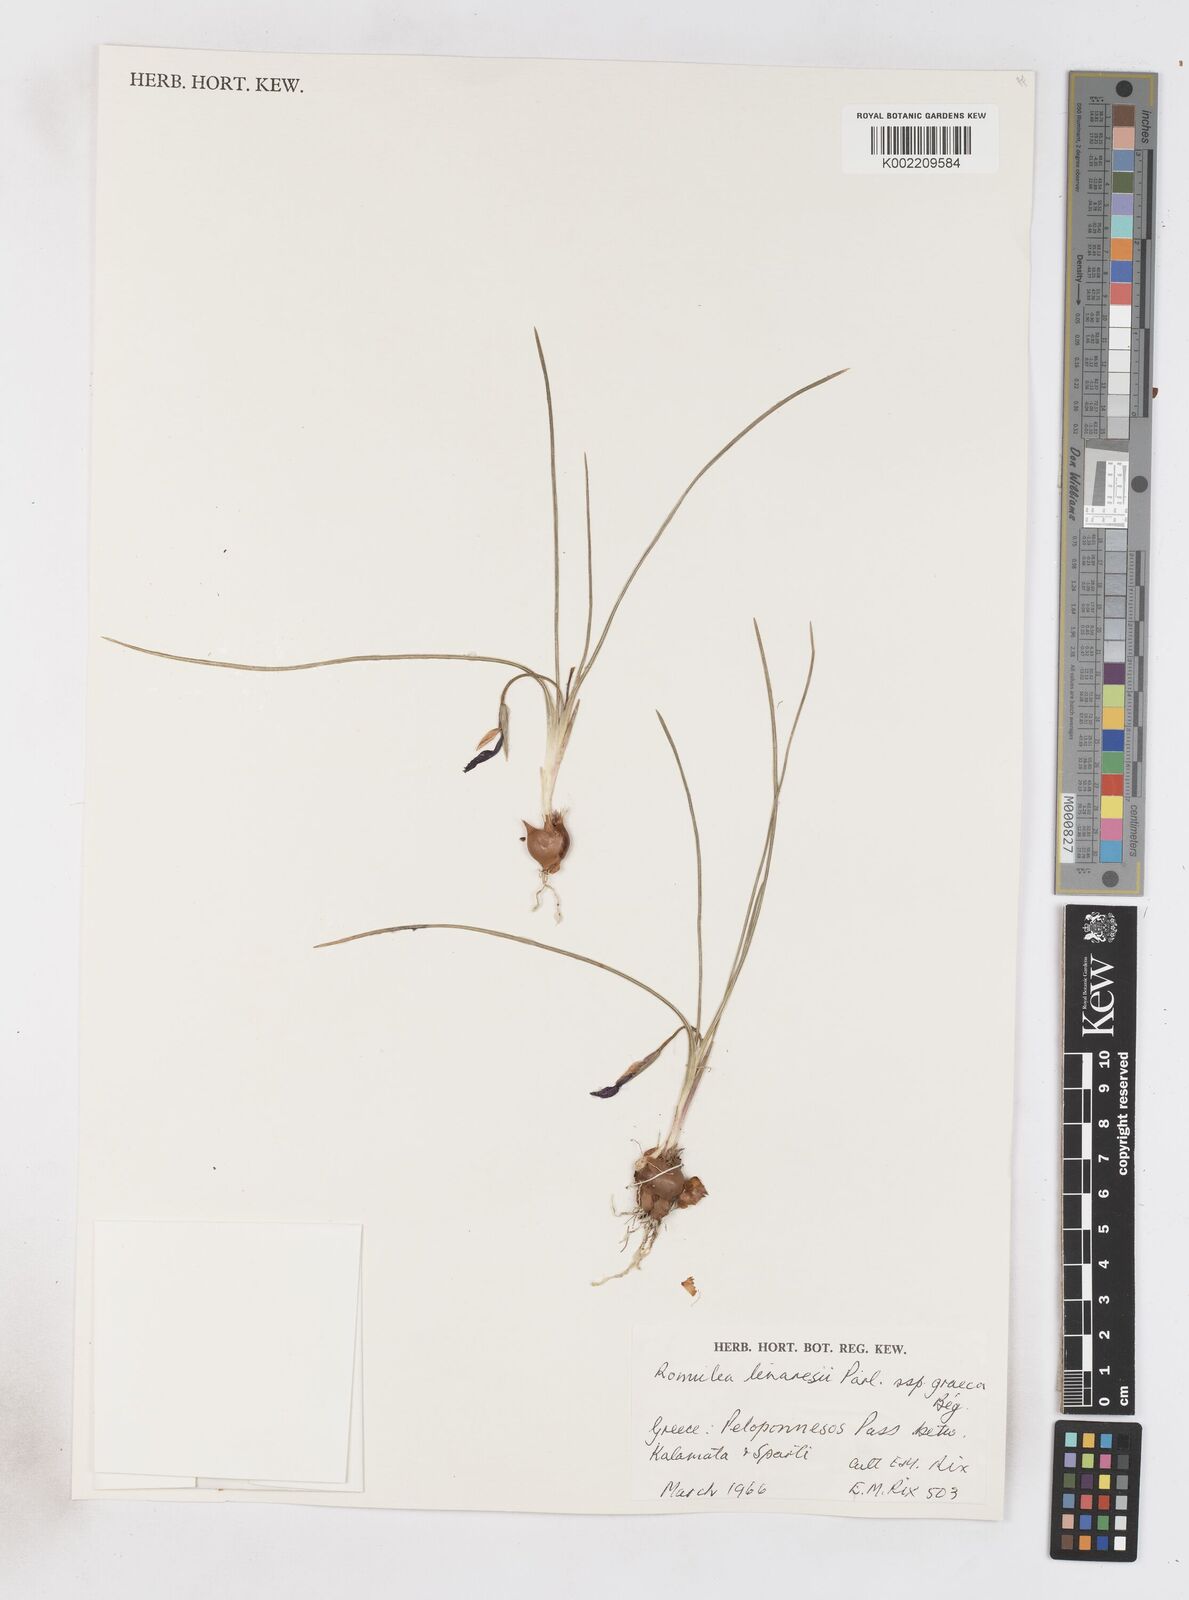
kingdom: Plantae
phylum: Tracheophyta
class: Liliopsida
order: Asparagales
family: Iridaceae
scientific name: Iridaceae
